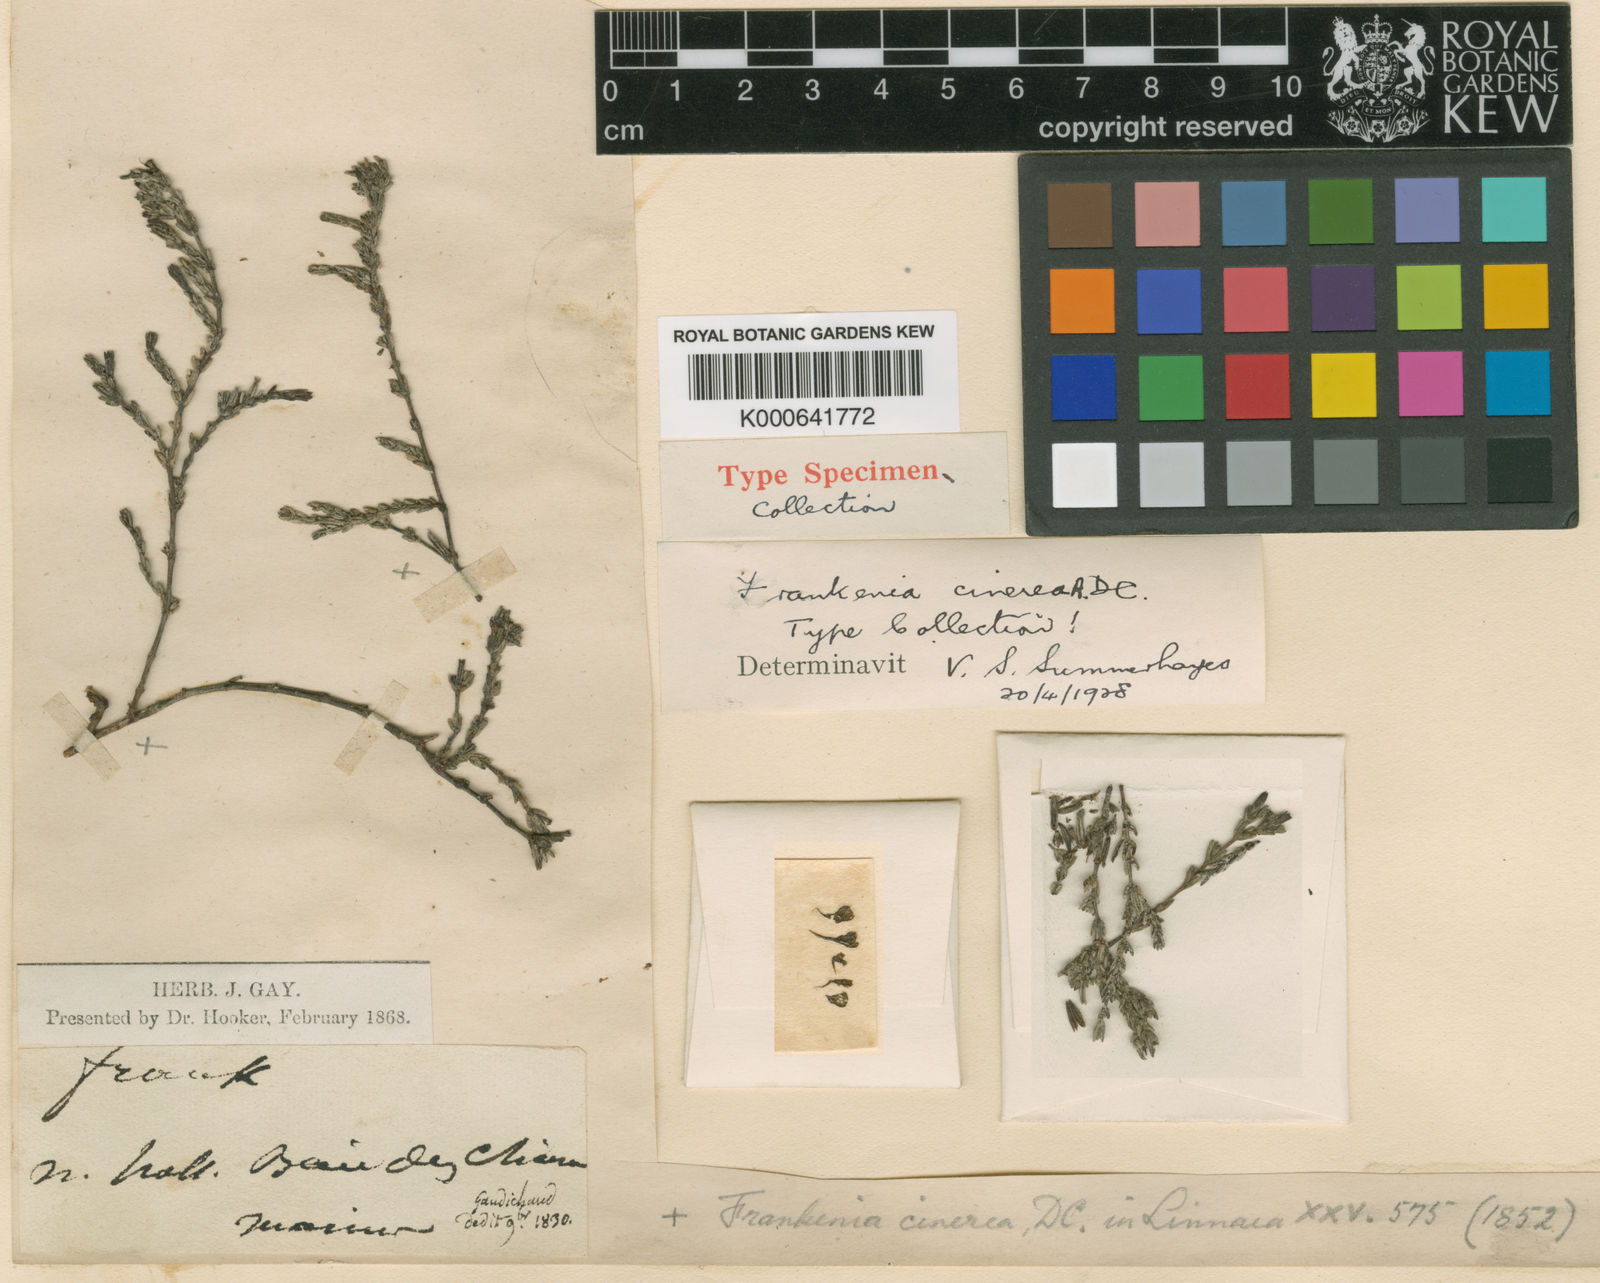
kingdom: Plantae
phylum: Tracheophyta
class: Magnoliopsida
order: Caryophyllales
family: Frankeniaceae
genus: Frankenia
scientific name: Frankenia cinerea
